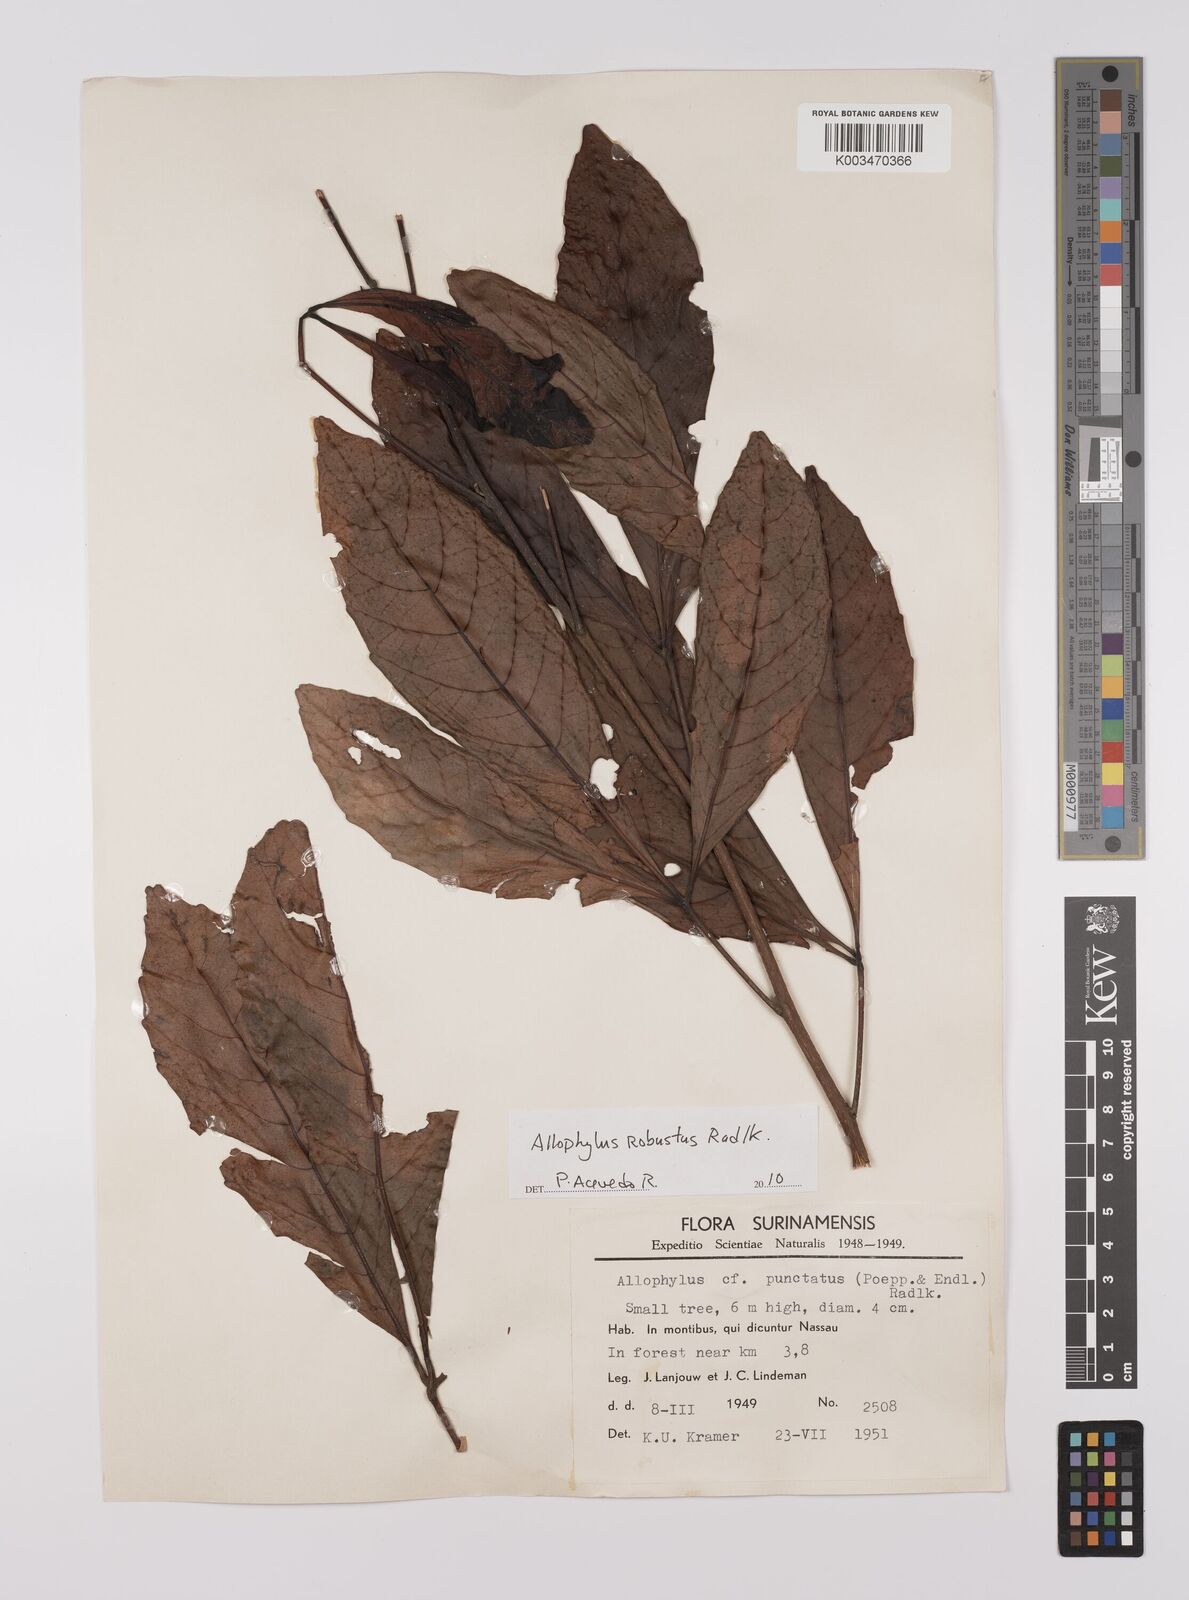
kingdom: Plantae
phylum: Tracheophyta
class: Magnoliopsida
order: Sapindales
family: Sapindaceae
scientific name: Sapindaceae
